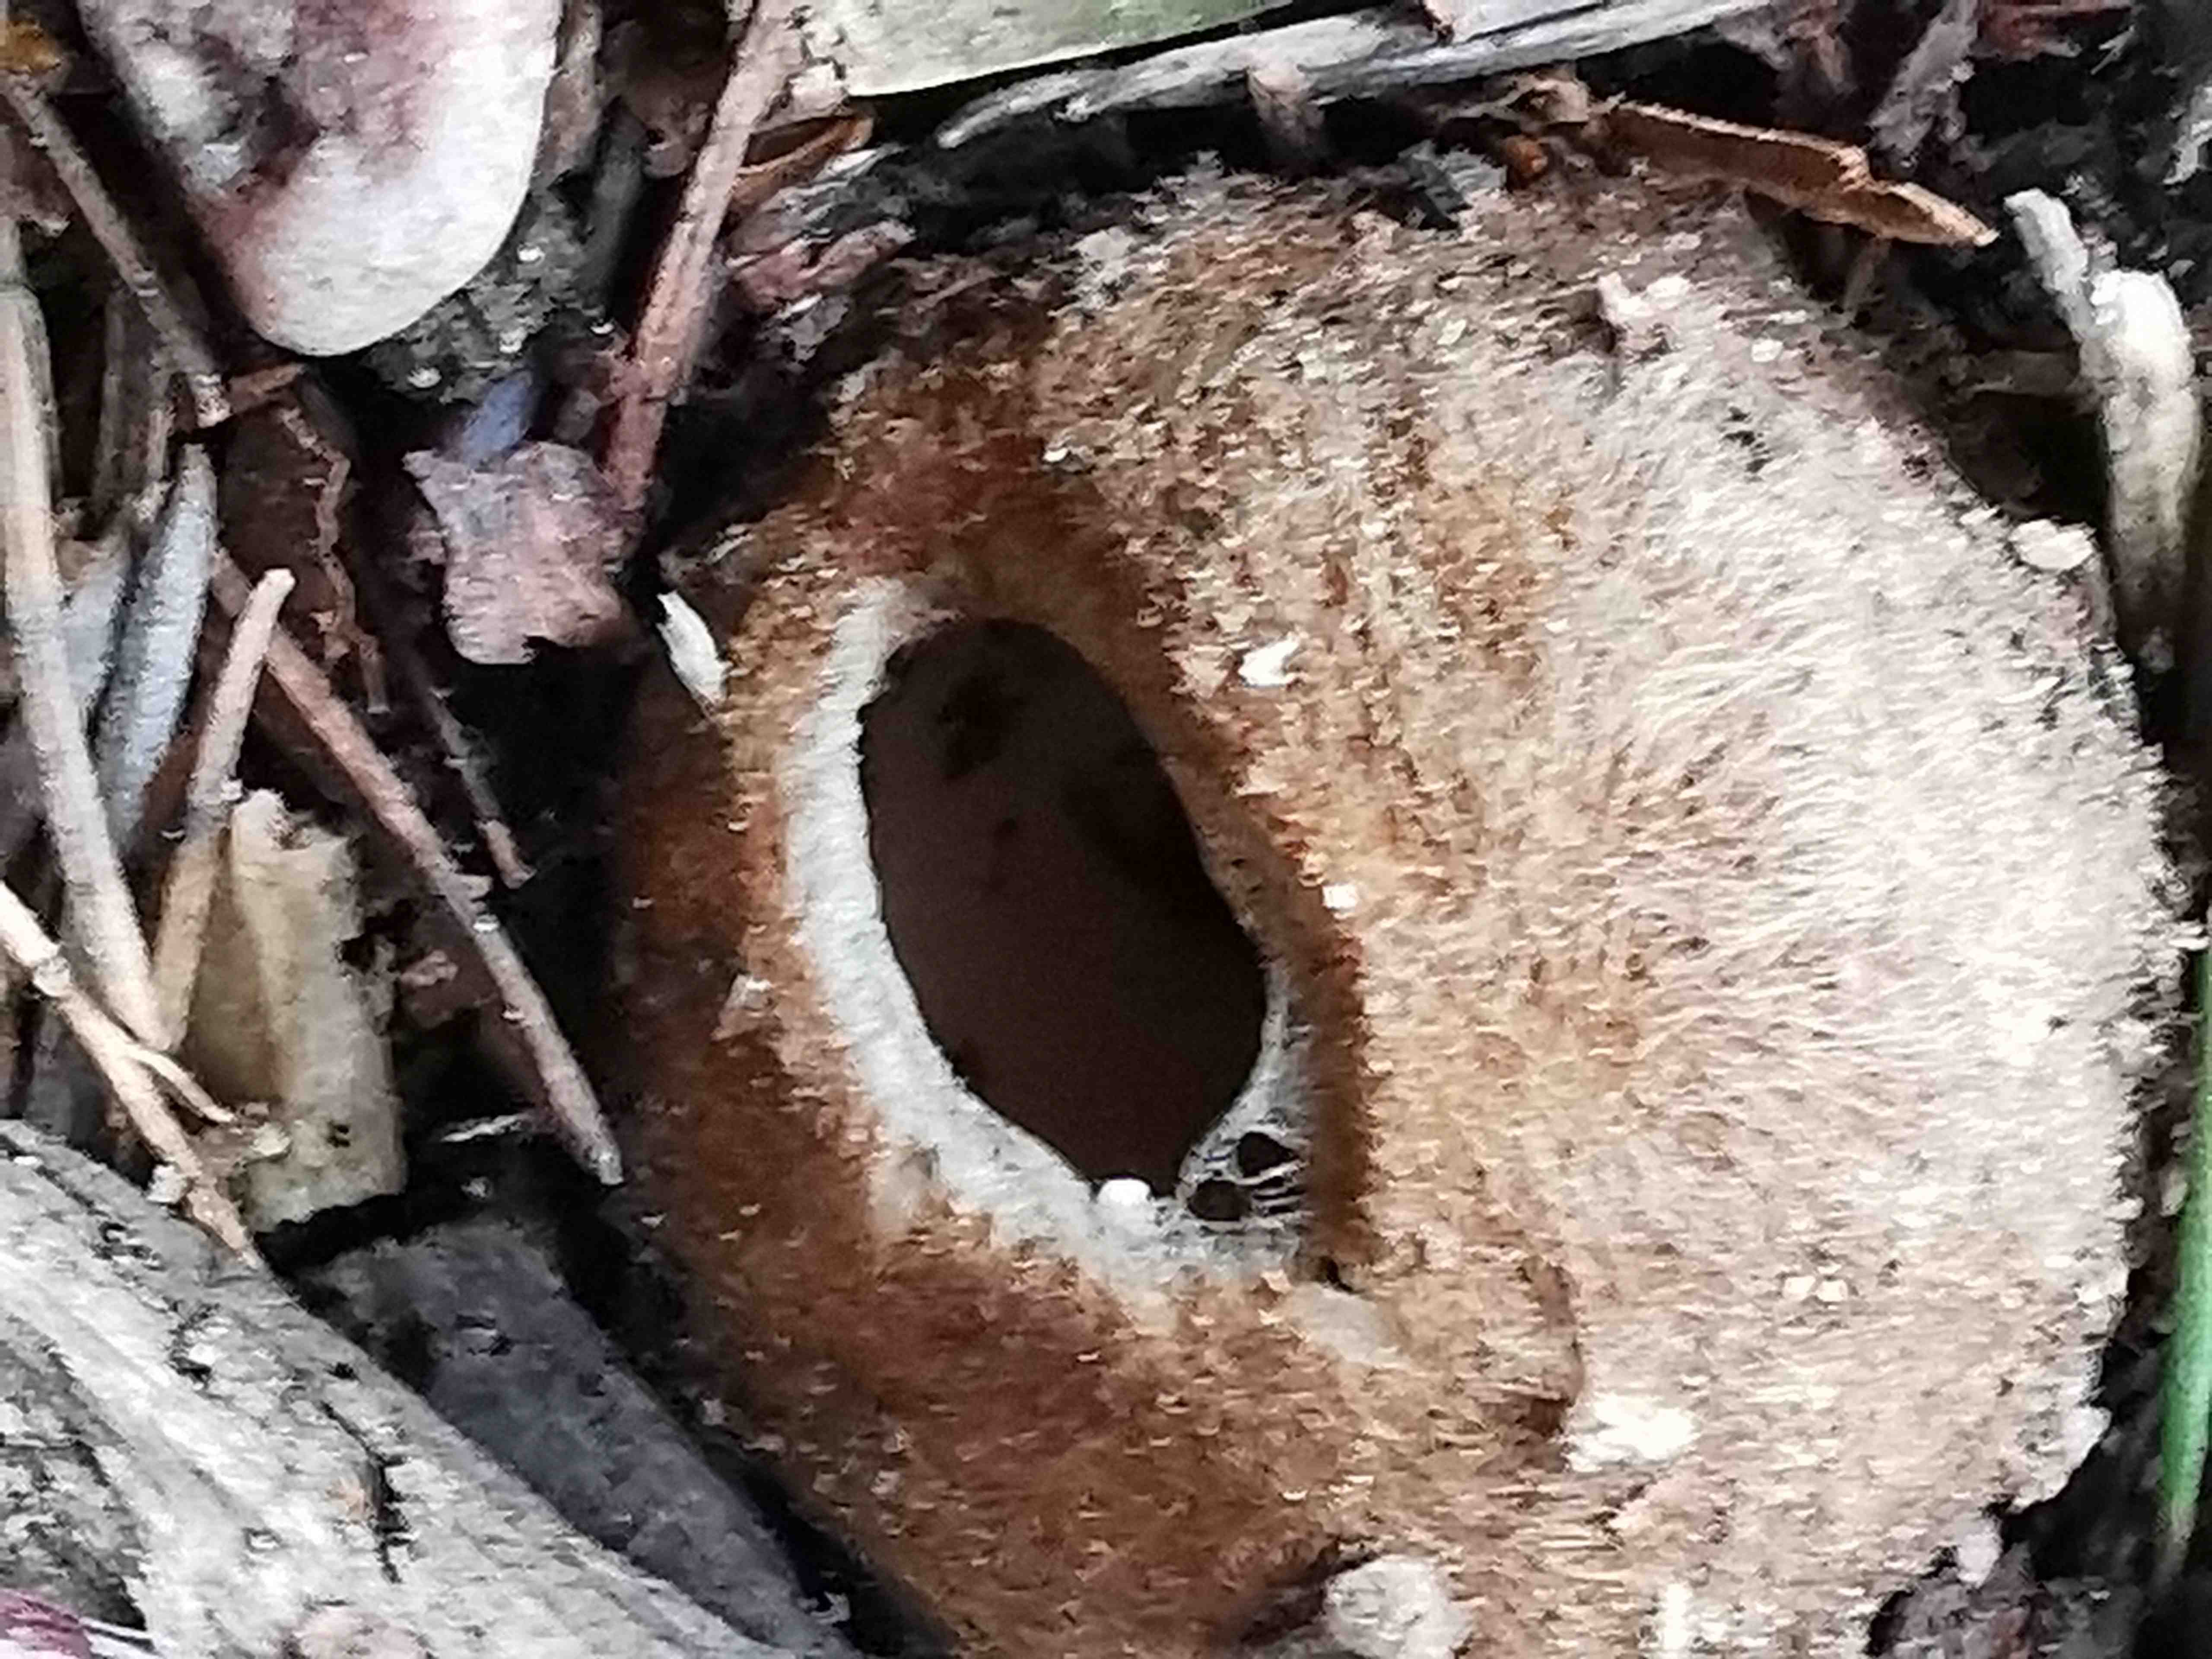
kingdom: Fungi
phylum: Ascomycota
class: Pezizomycetes
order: Pezizales
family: Pyronemataceae
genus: Geopora
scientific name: Geopora sumneriana
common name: vår-jordbæger
